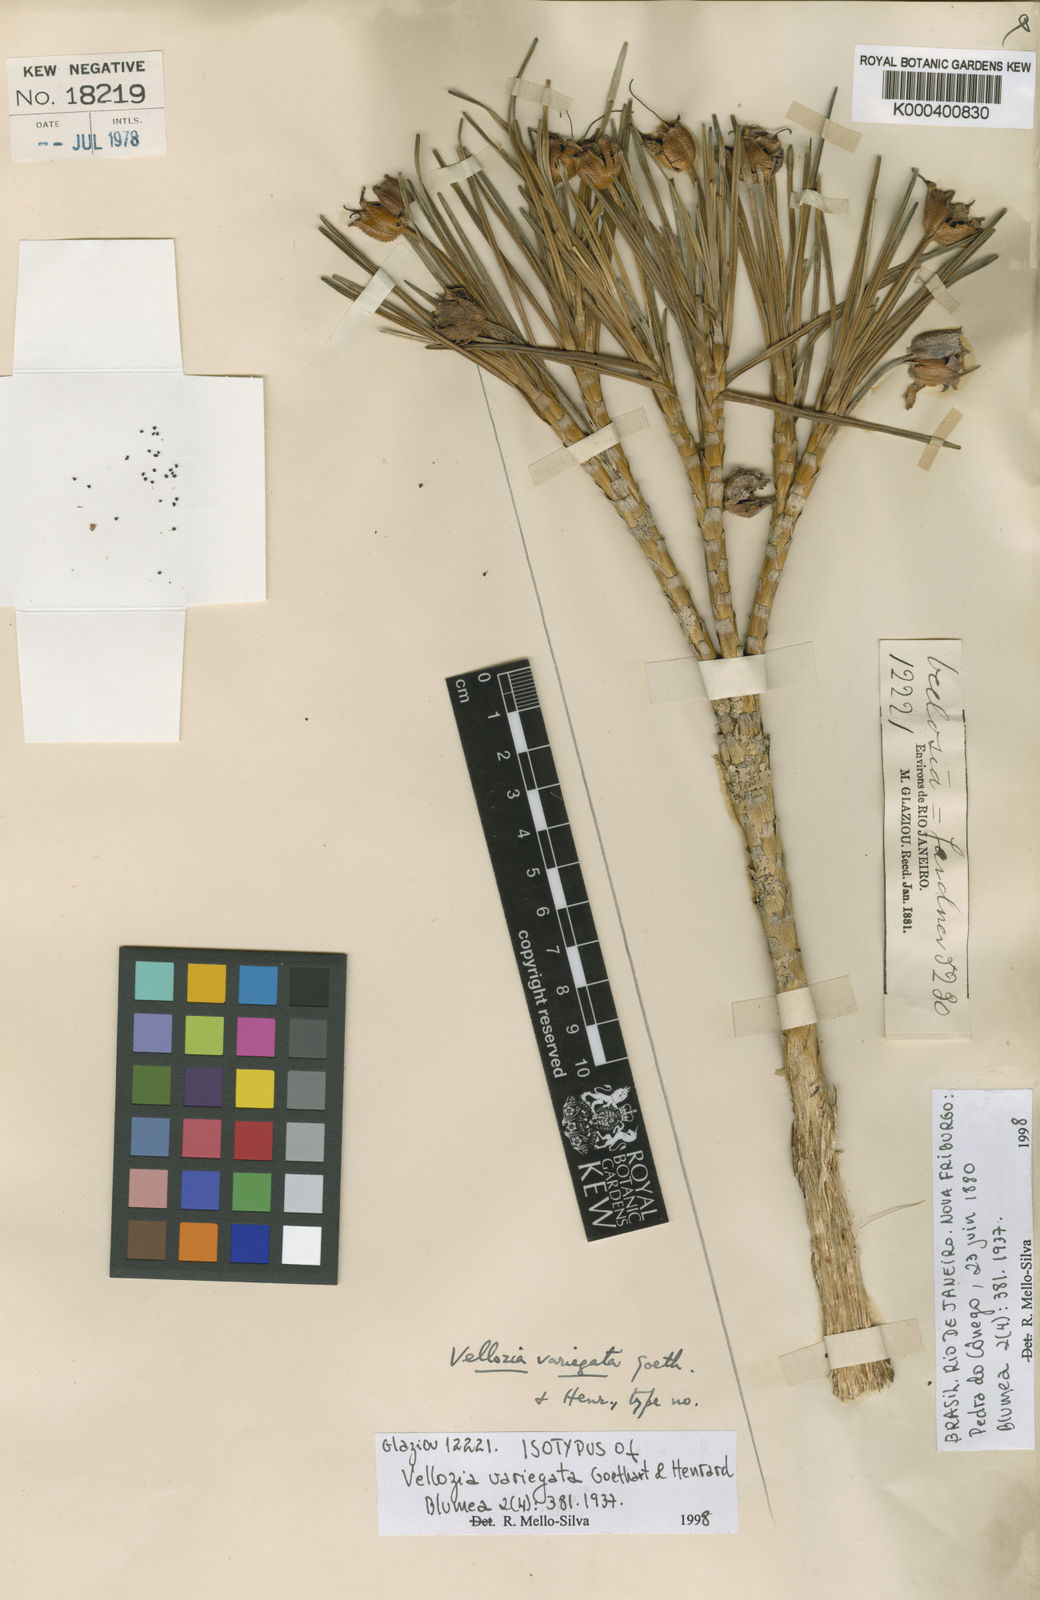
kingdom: Plantae
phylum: Tracheophyta
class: Liliopsida
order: Pandanales
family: Velloziaceae
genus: Vellozia
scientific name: Vellozia variegata
